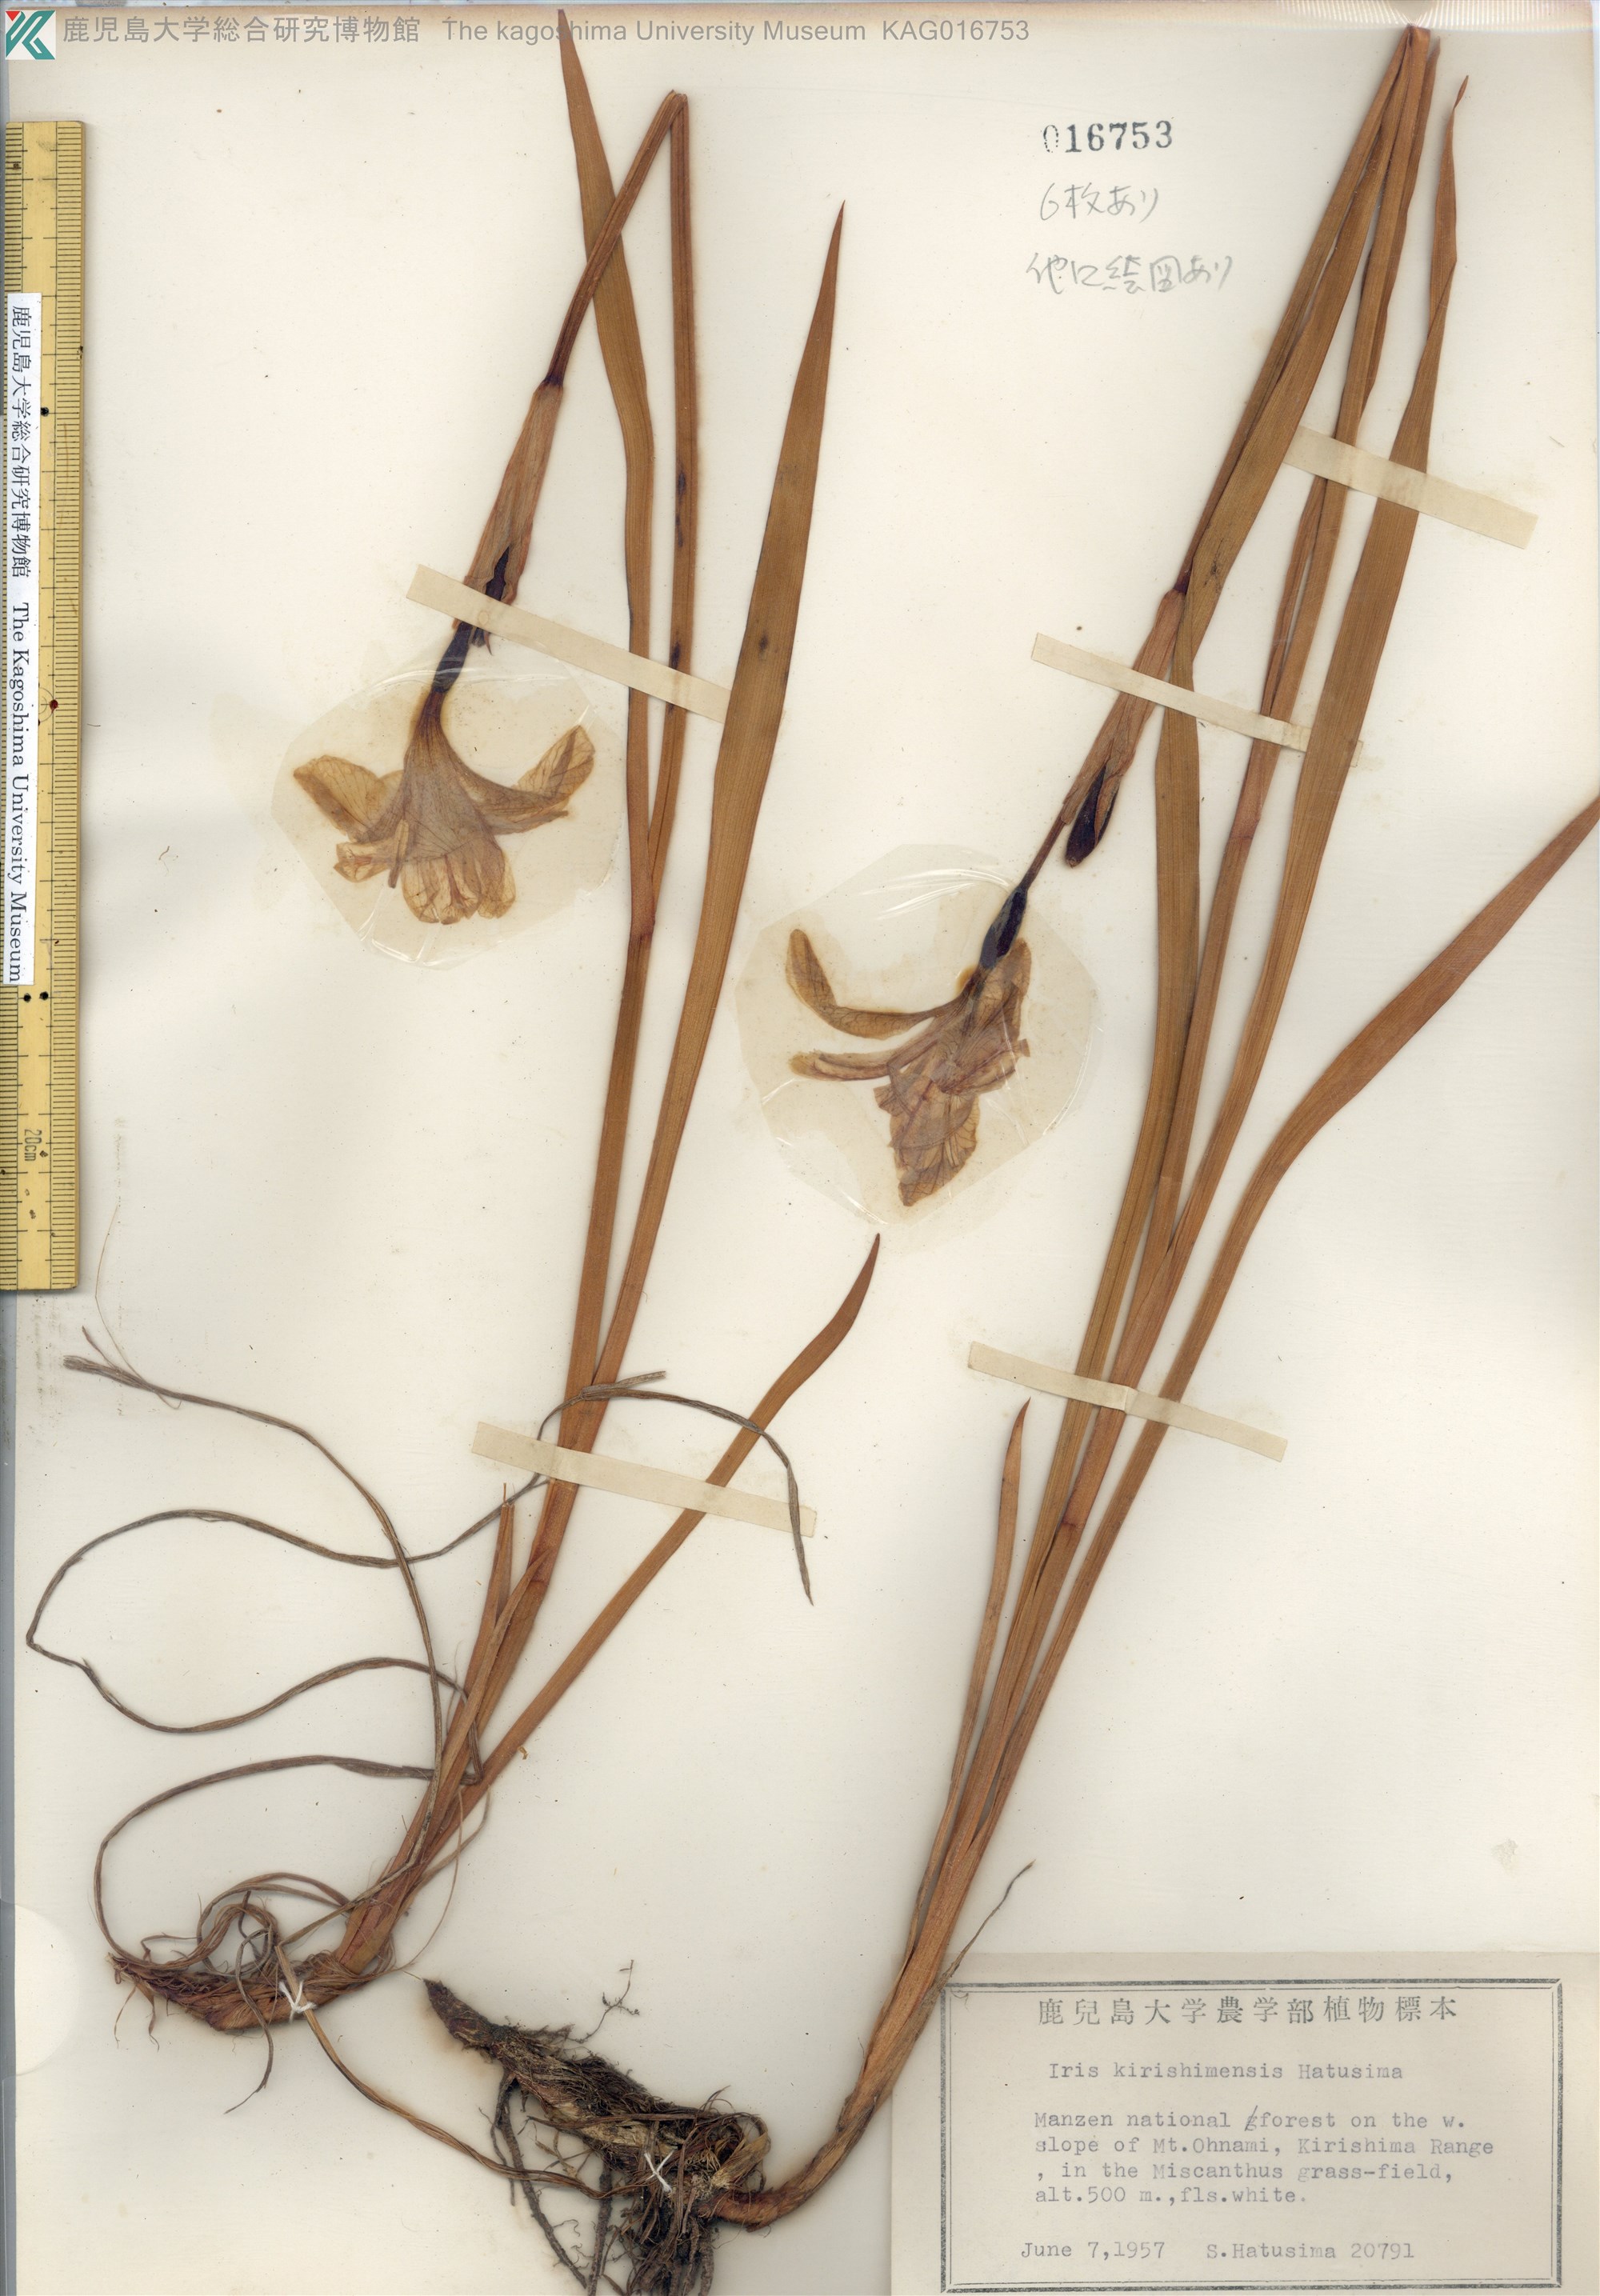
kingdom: Plantae
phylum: Tracheophyta
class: Liliopsida
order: Asparagales
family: Iridaceae
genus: Iris
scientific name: Iris sanguinea
